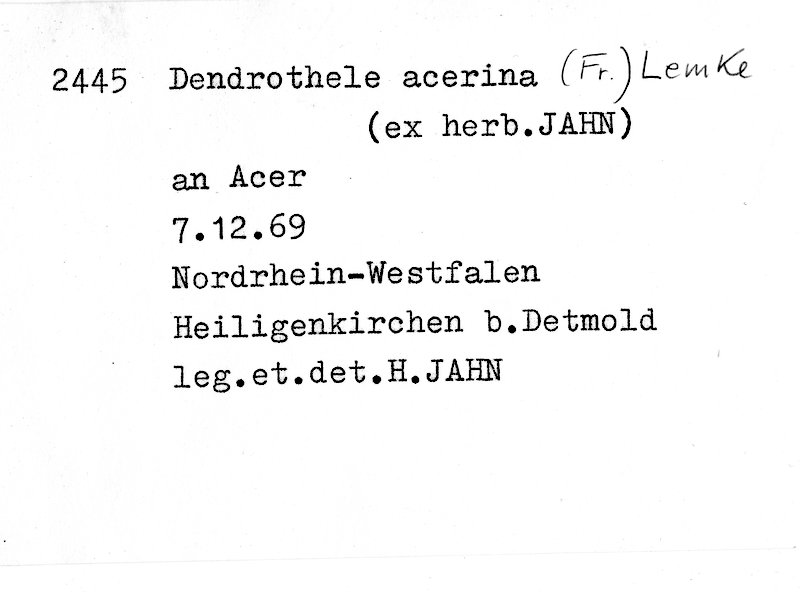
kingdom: Plantae
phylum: Tracheophyta
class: Magnoliopsida
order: Sapindales
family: Sapindaceae
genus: Acer
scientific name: Acer
